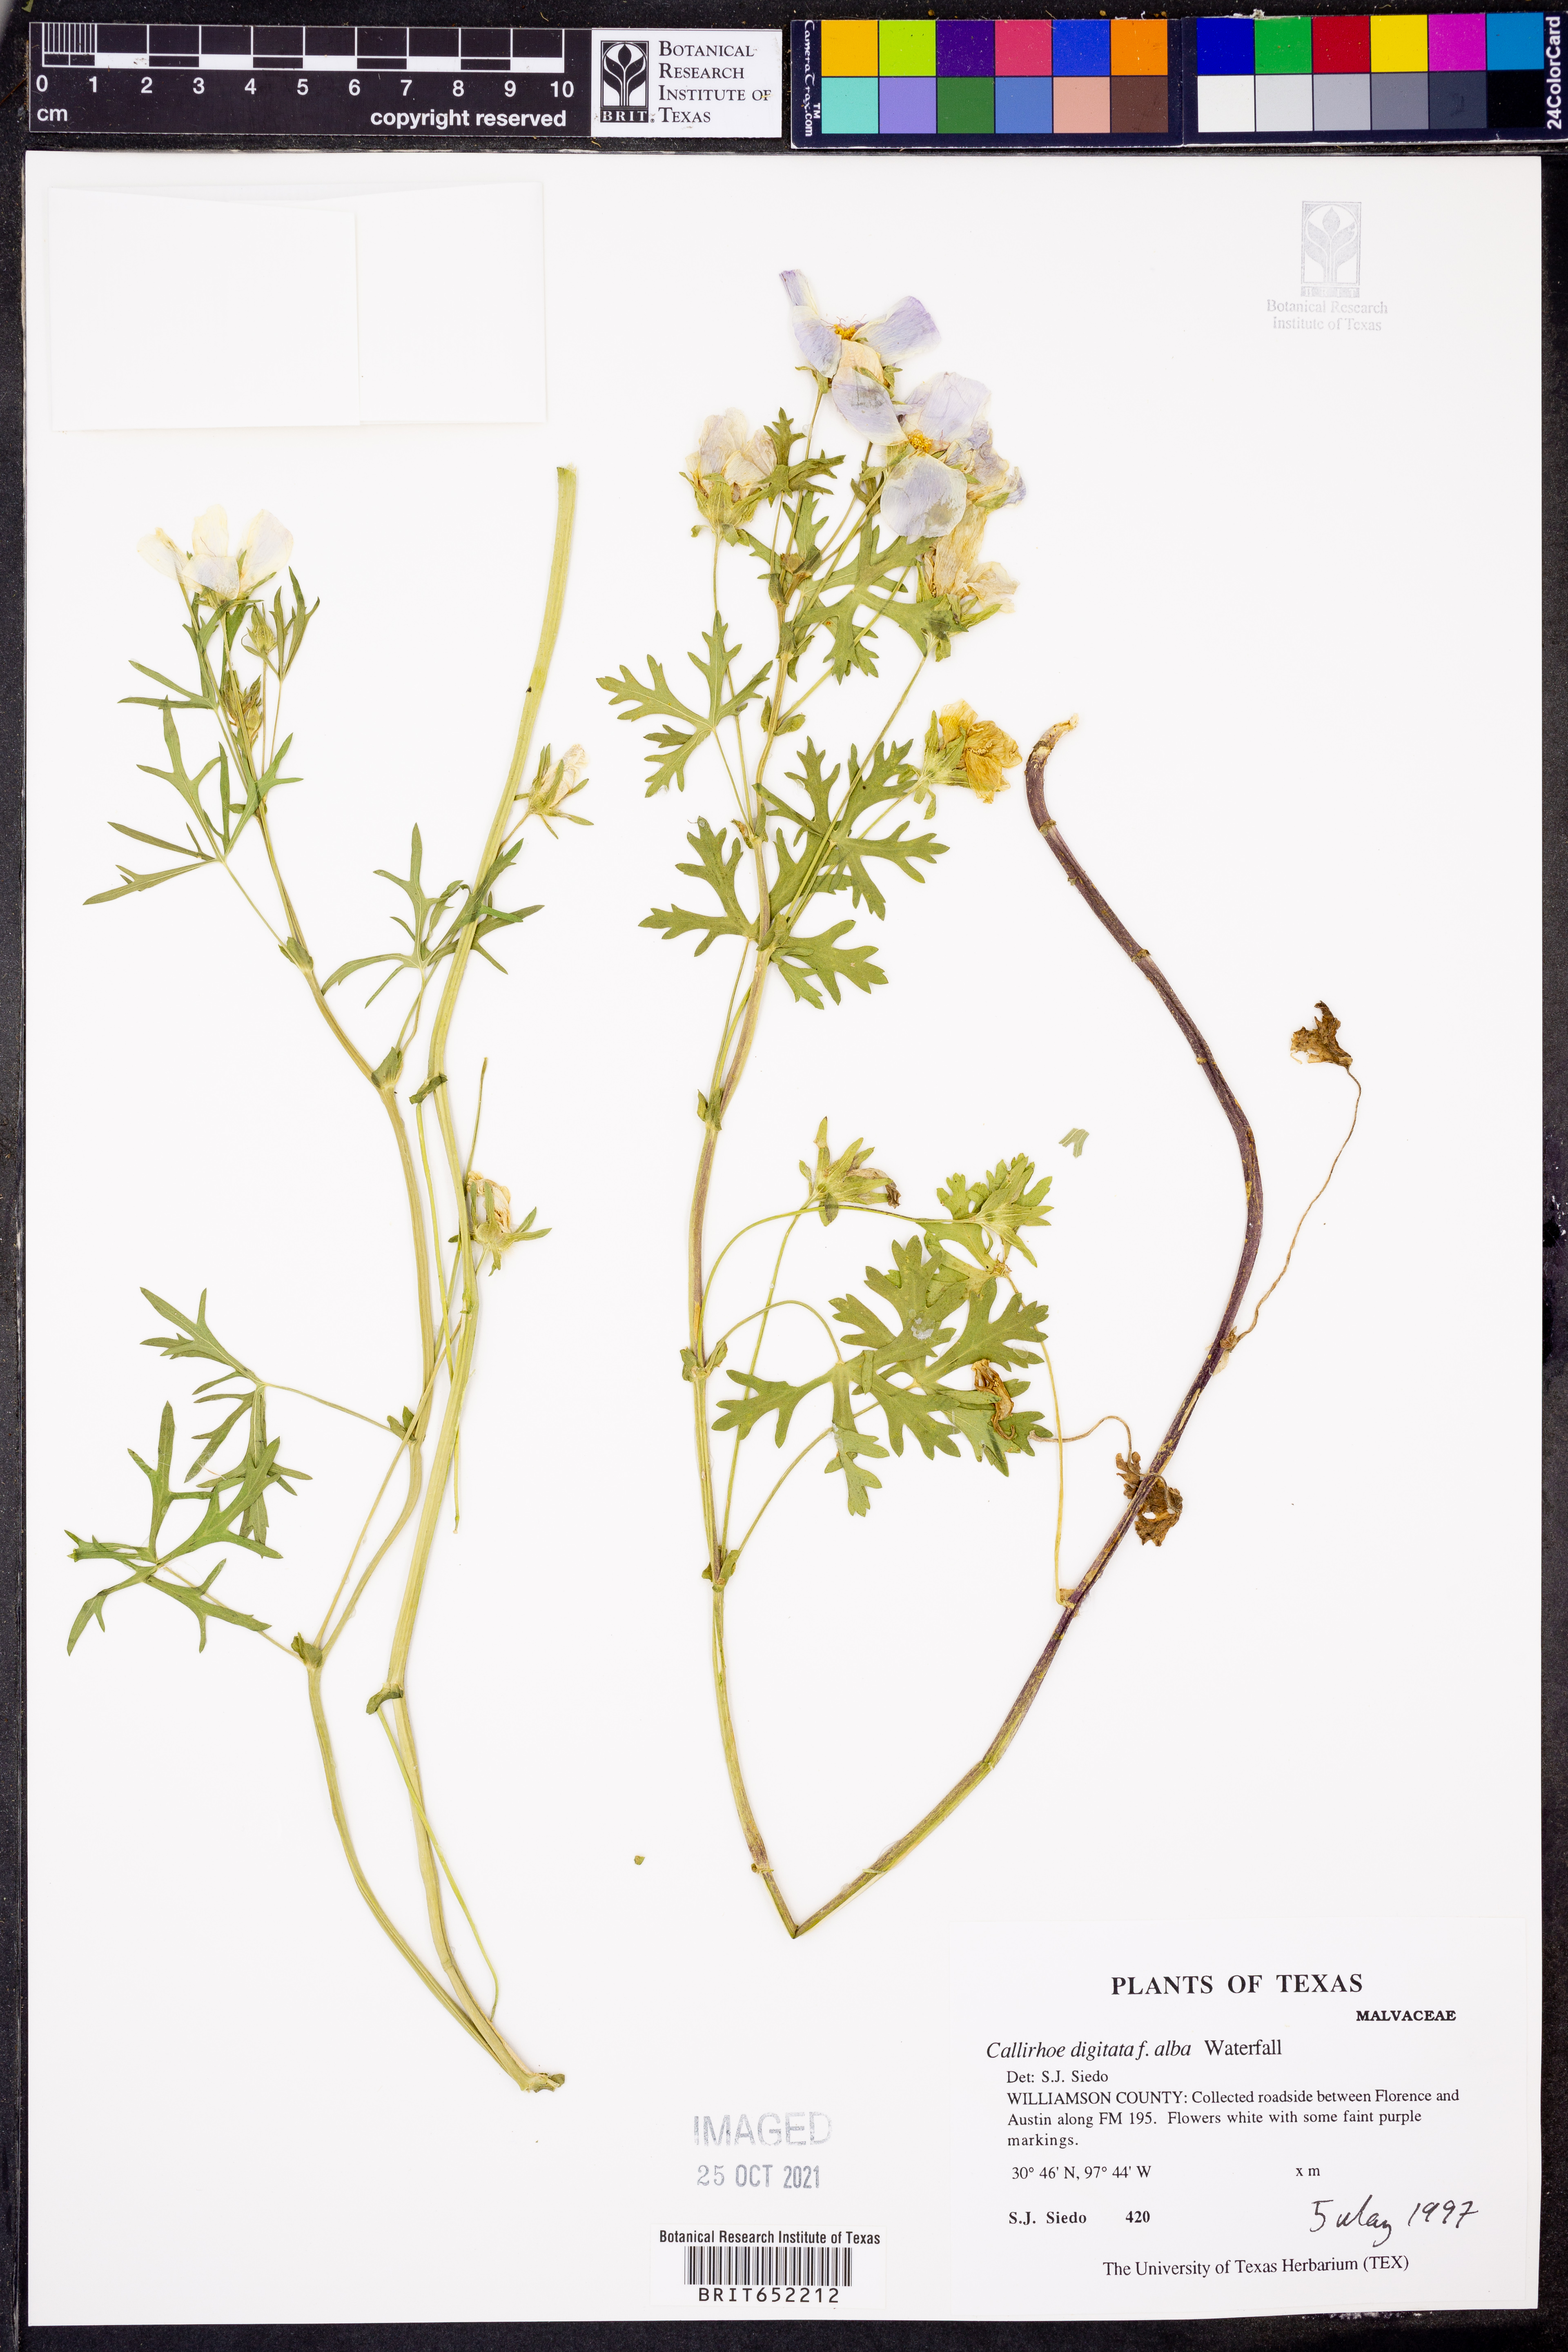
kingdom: Plantae
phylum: Tracheophyta
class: Magnoliopsida
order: Malvales
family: Malvaceae
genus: Callirhoe
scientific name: Callirhoe pedata
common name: Finger poppy-mallow
